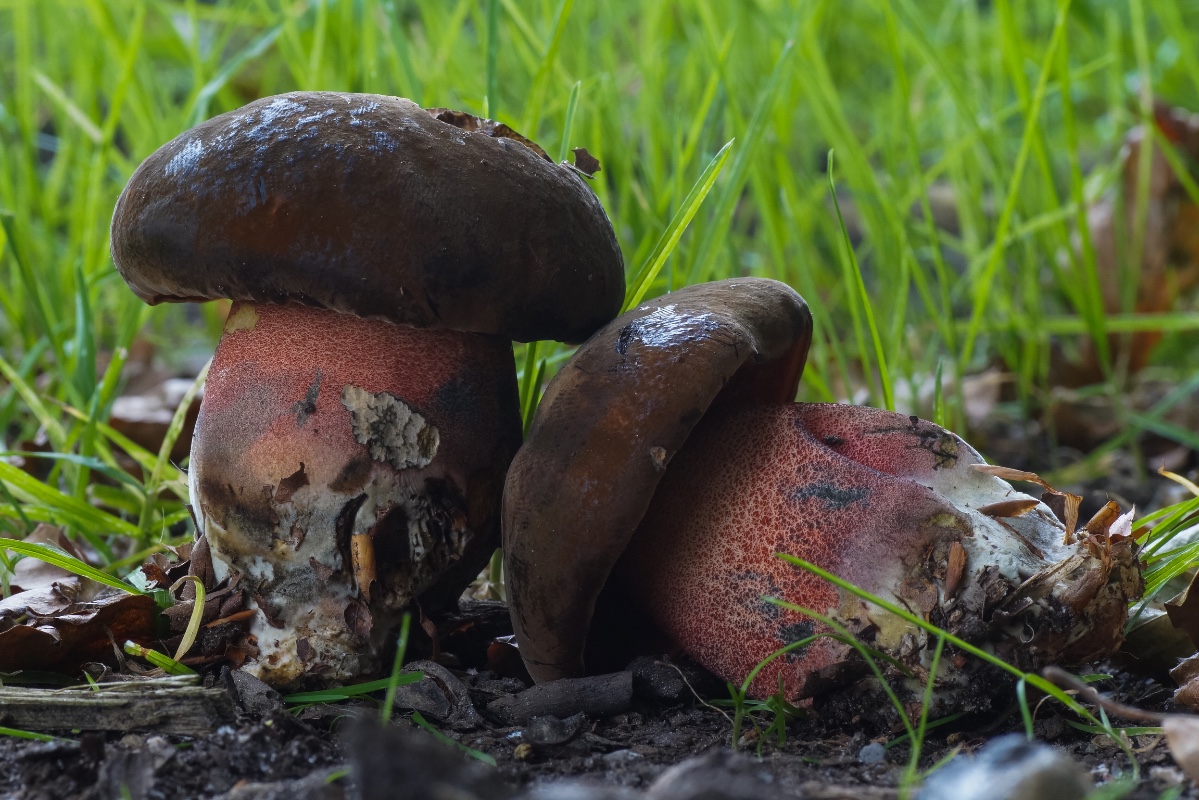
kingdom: Fungi
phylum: Basidiomycota
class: Agaricomycetes
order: Boletales
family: Boletaceae
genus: Neoboletus
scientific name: Neoboletus erythropus
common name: punktstokket indigorørhat
